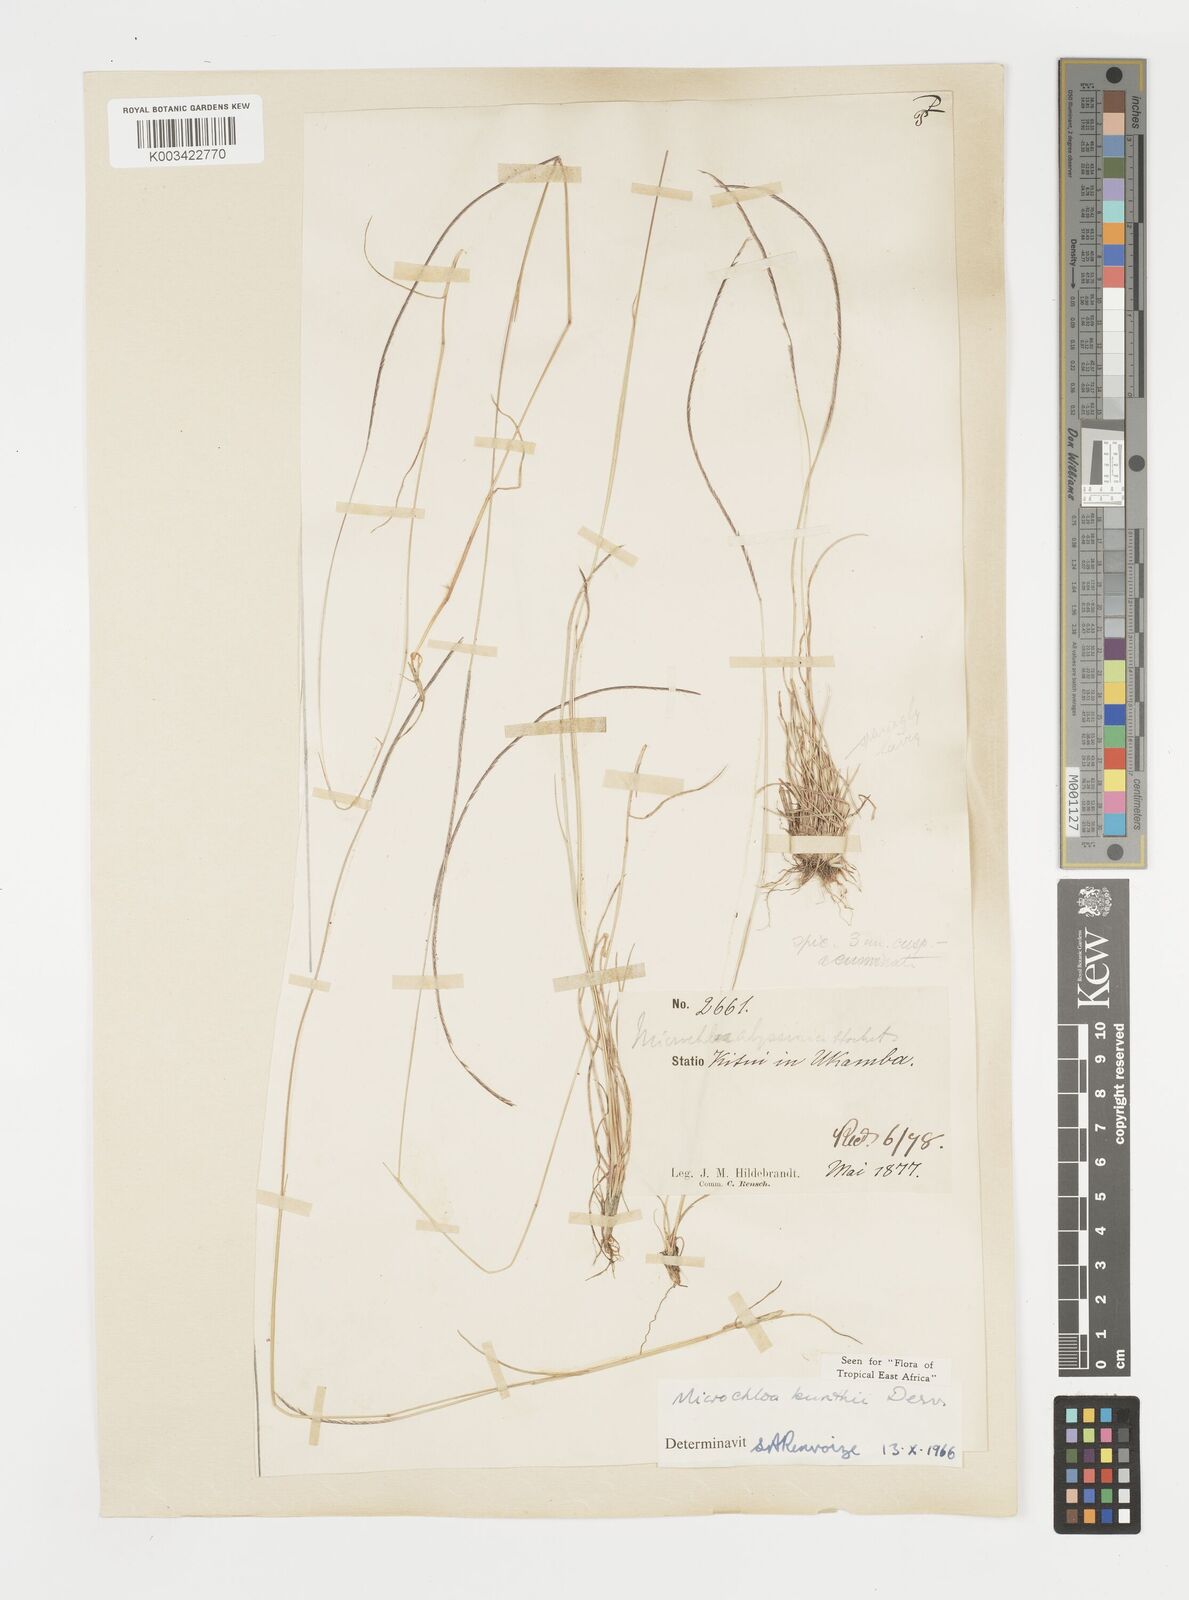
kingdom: Plantae
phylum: Tracheophyta
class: Liliopsida
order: Poales
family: Poaceae
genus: Microchloa
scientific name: Microchloa kunthii
